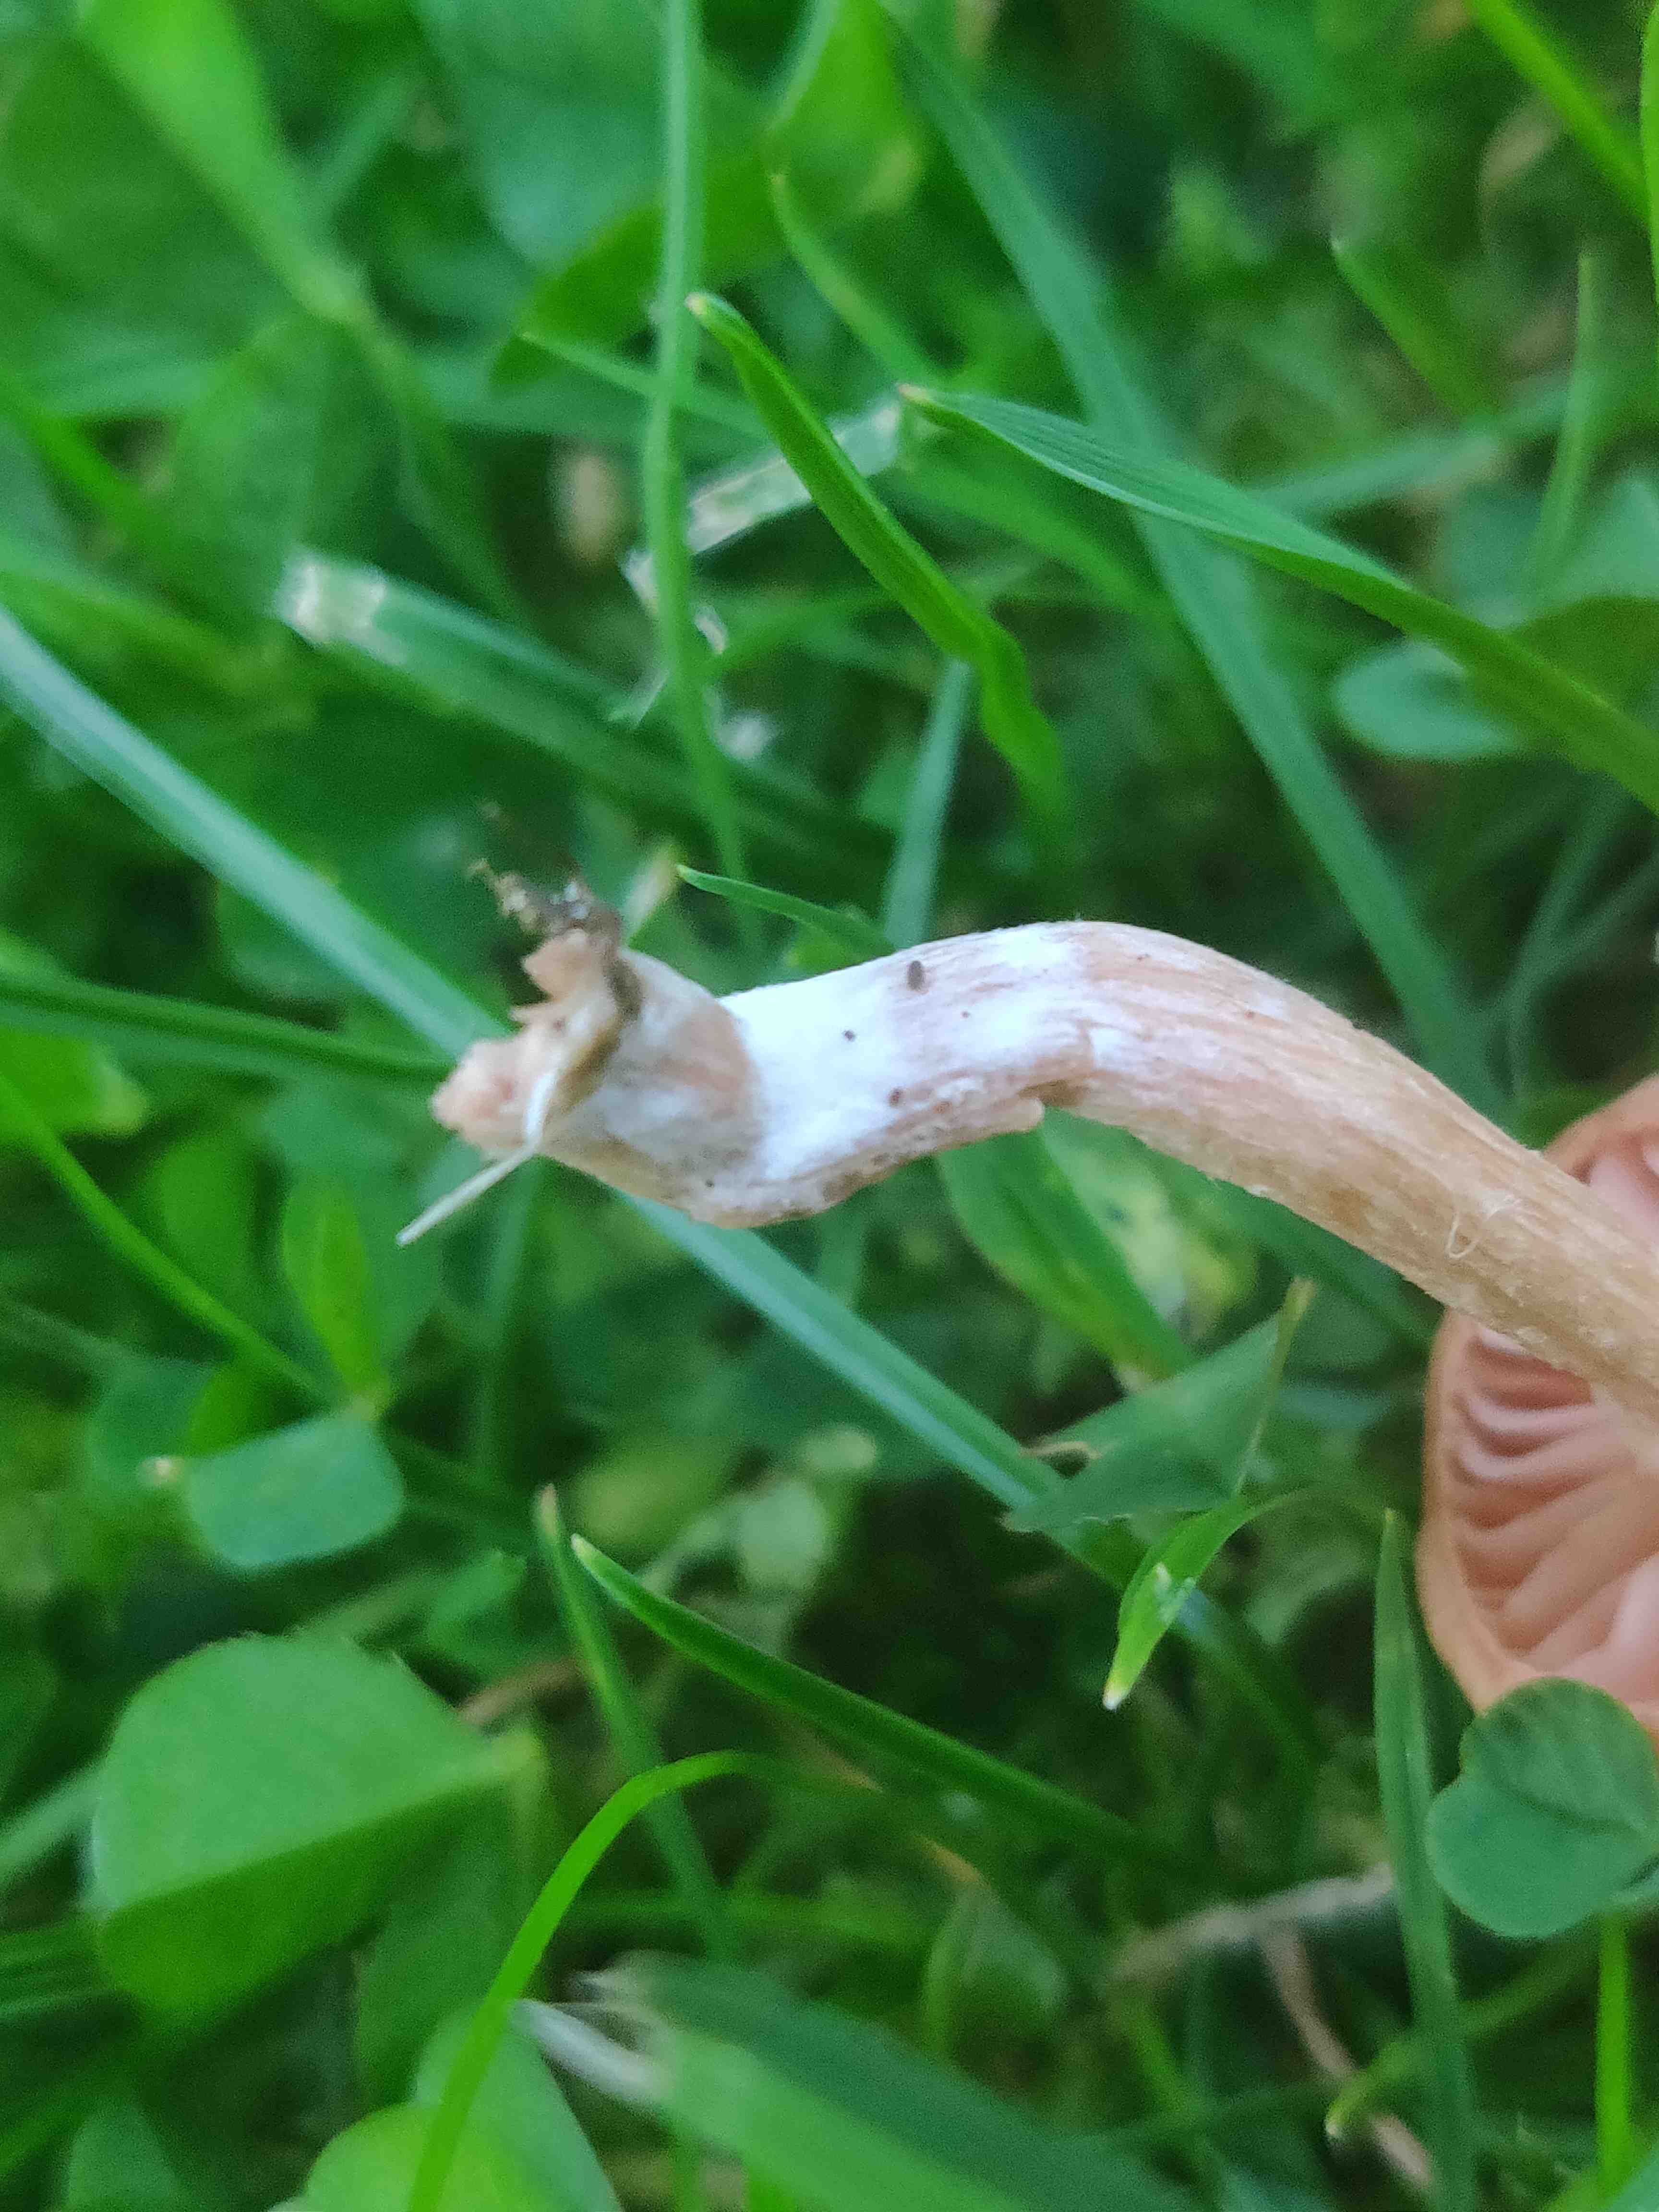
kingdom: Fungi
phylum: Basidiomycota
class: Agaricomycetes
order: Agaricales
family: Hydnangiaceae
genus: Laccaria
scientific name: Laccaria laccata
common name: rød ametysthat
